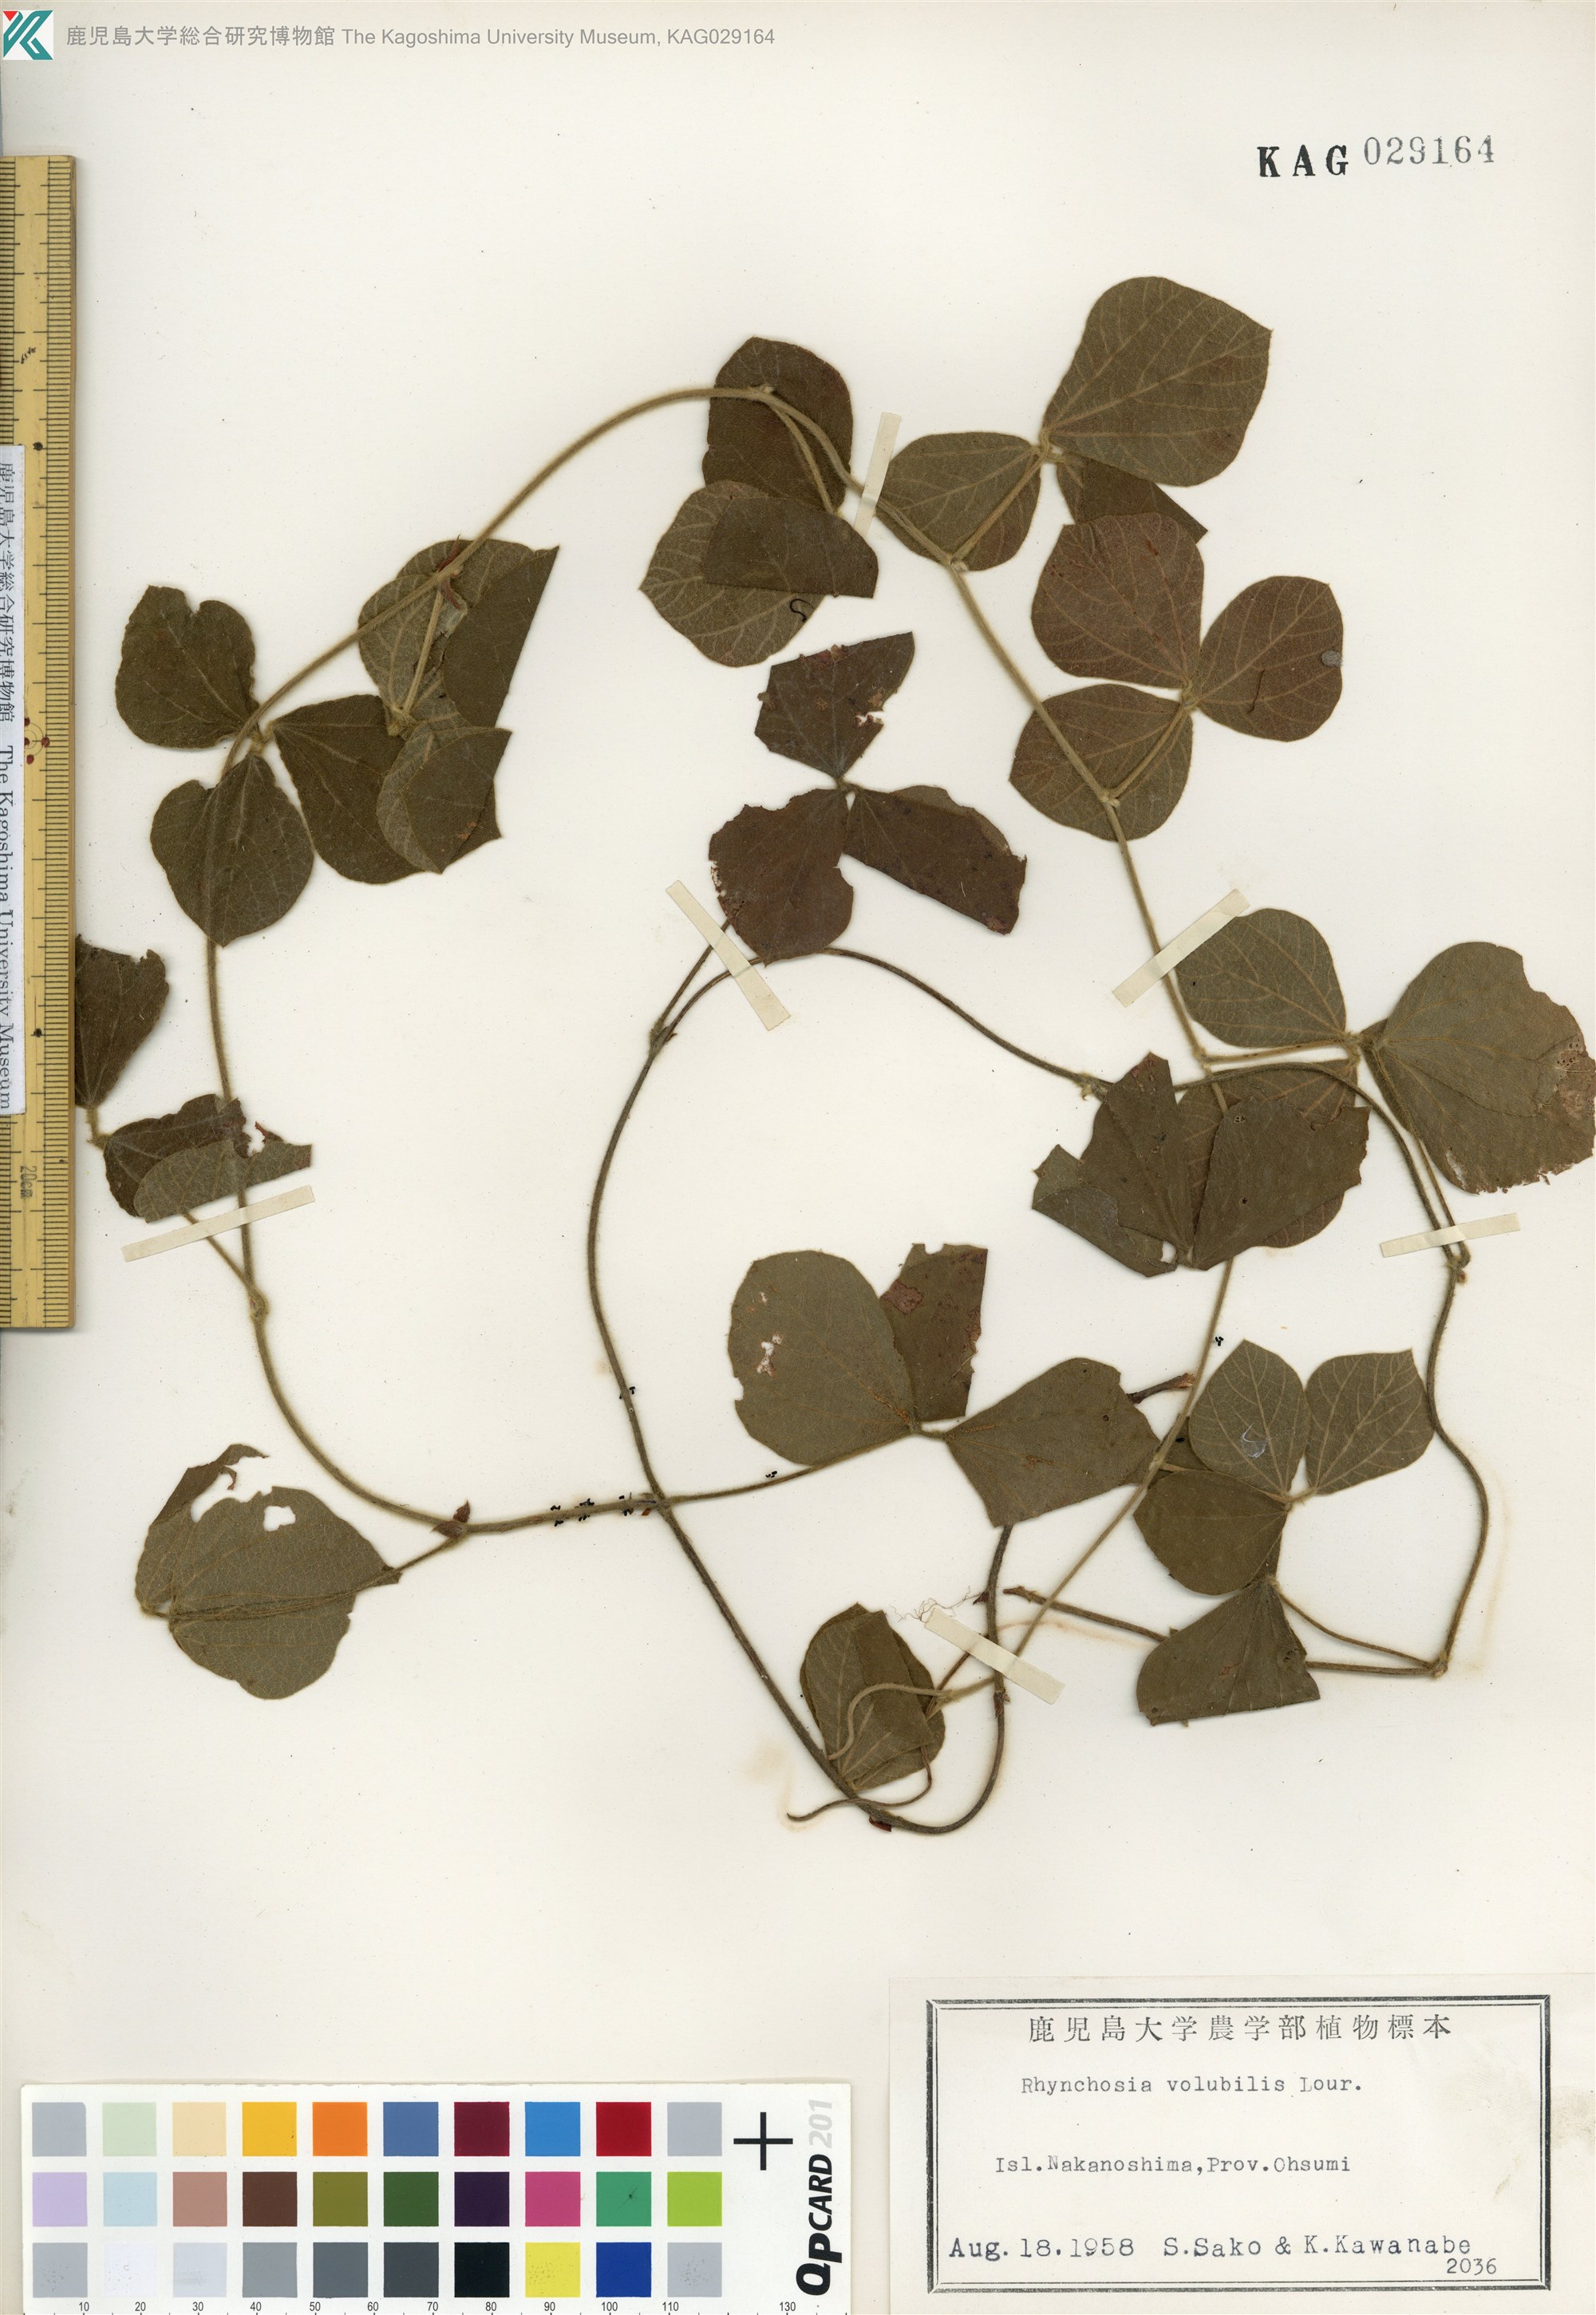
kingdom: Plantae
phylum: Tracheophyta
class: Magnoliopsida
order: Fabales
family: Fabaceae
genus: Rhynchosia
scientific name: Rhynchosia volubilis
